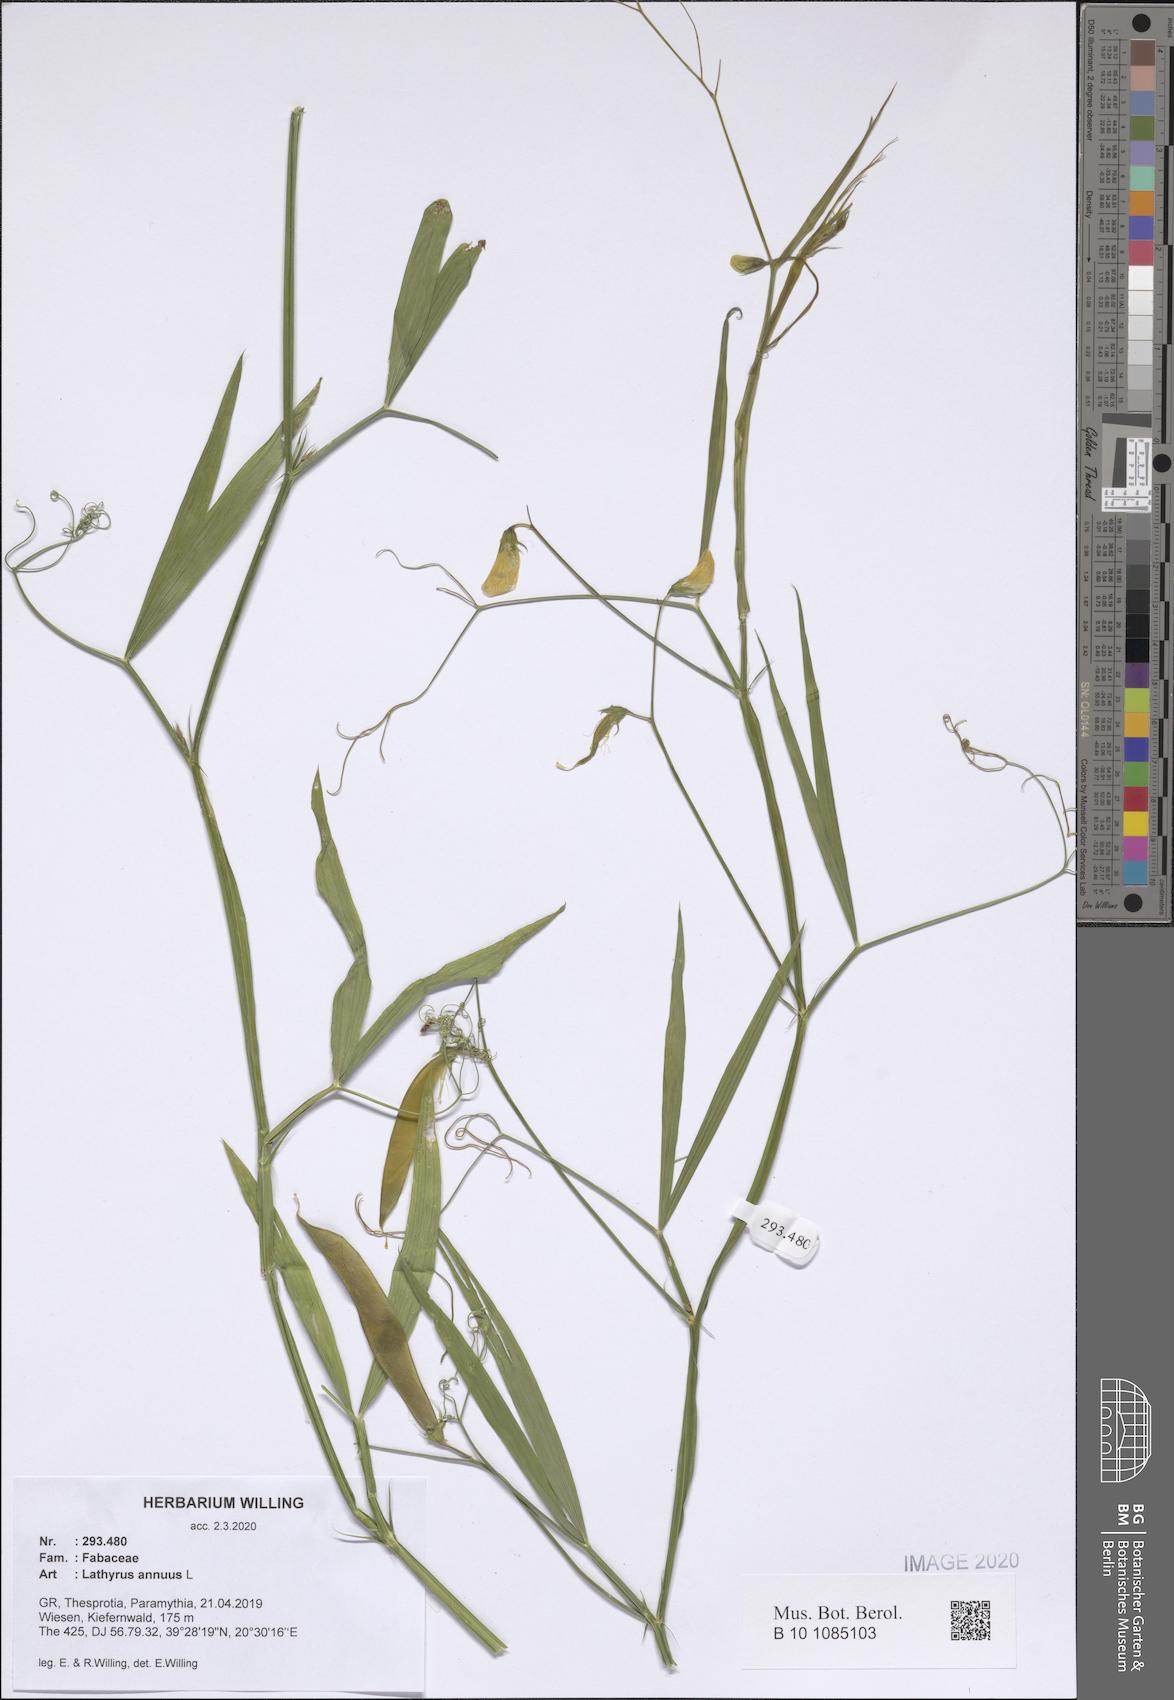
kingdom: Plantae
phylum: Tracheophyta
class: Magnoliopsida
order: Fabales
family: Fabaceae
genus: Lathyrus
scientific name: Lathyrus annuus
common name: Fodder pea
